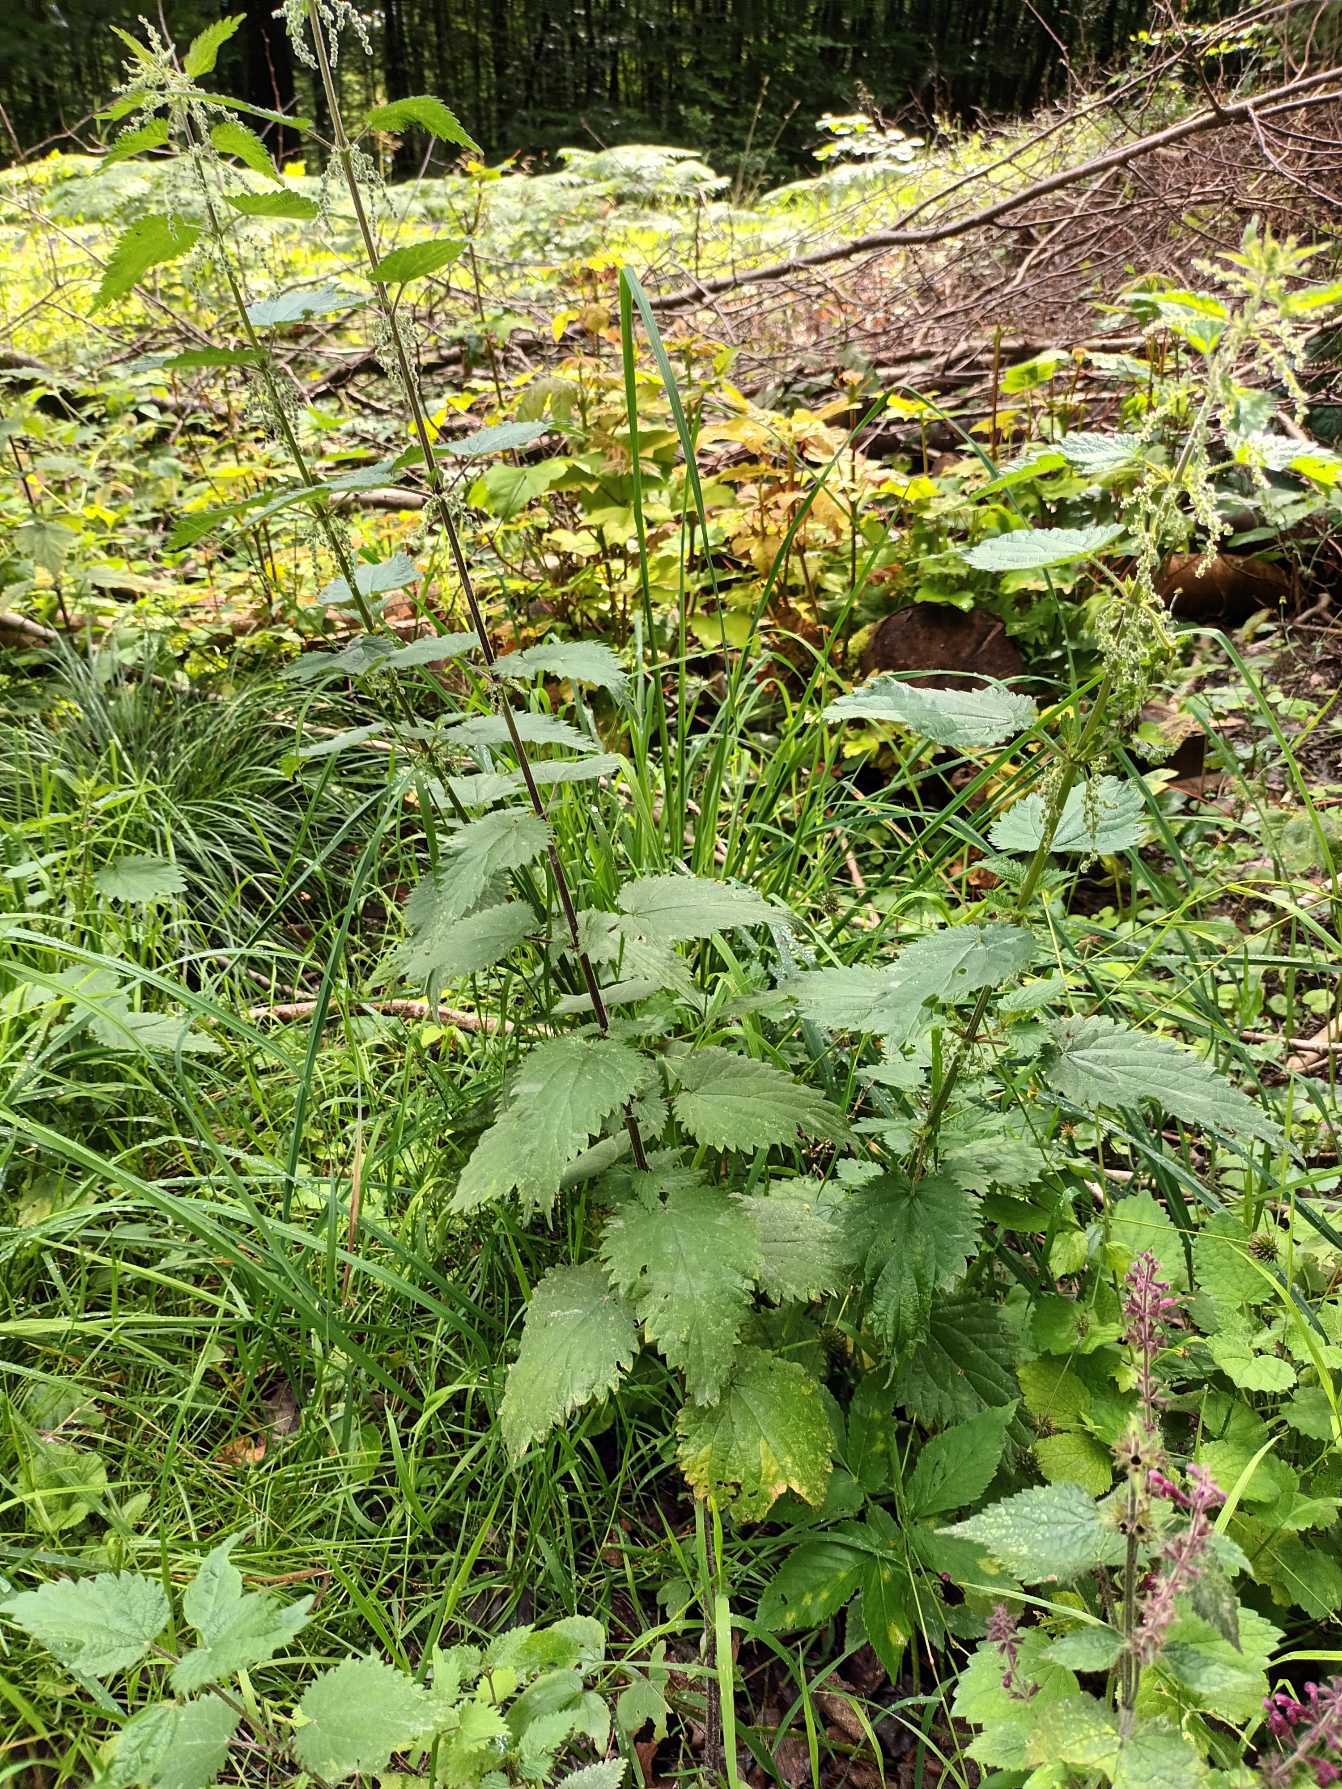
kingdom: Plantae
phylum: Tracheophyta
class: Magnoliopsida
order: Rosales
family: Urticaceae
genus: Urtica
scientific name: Urtica dioica
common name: Stor nælde
